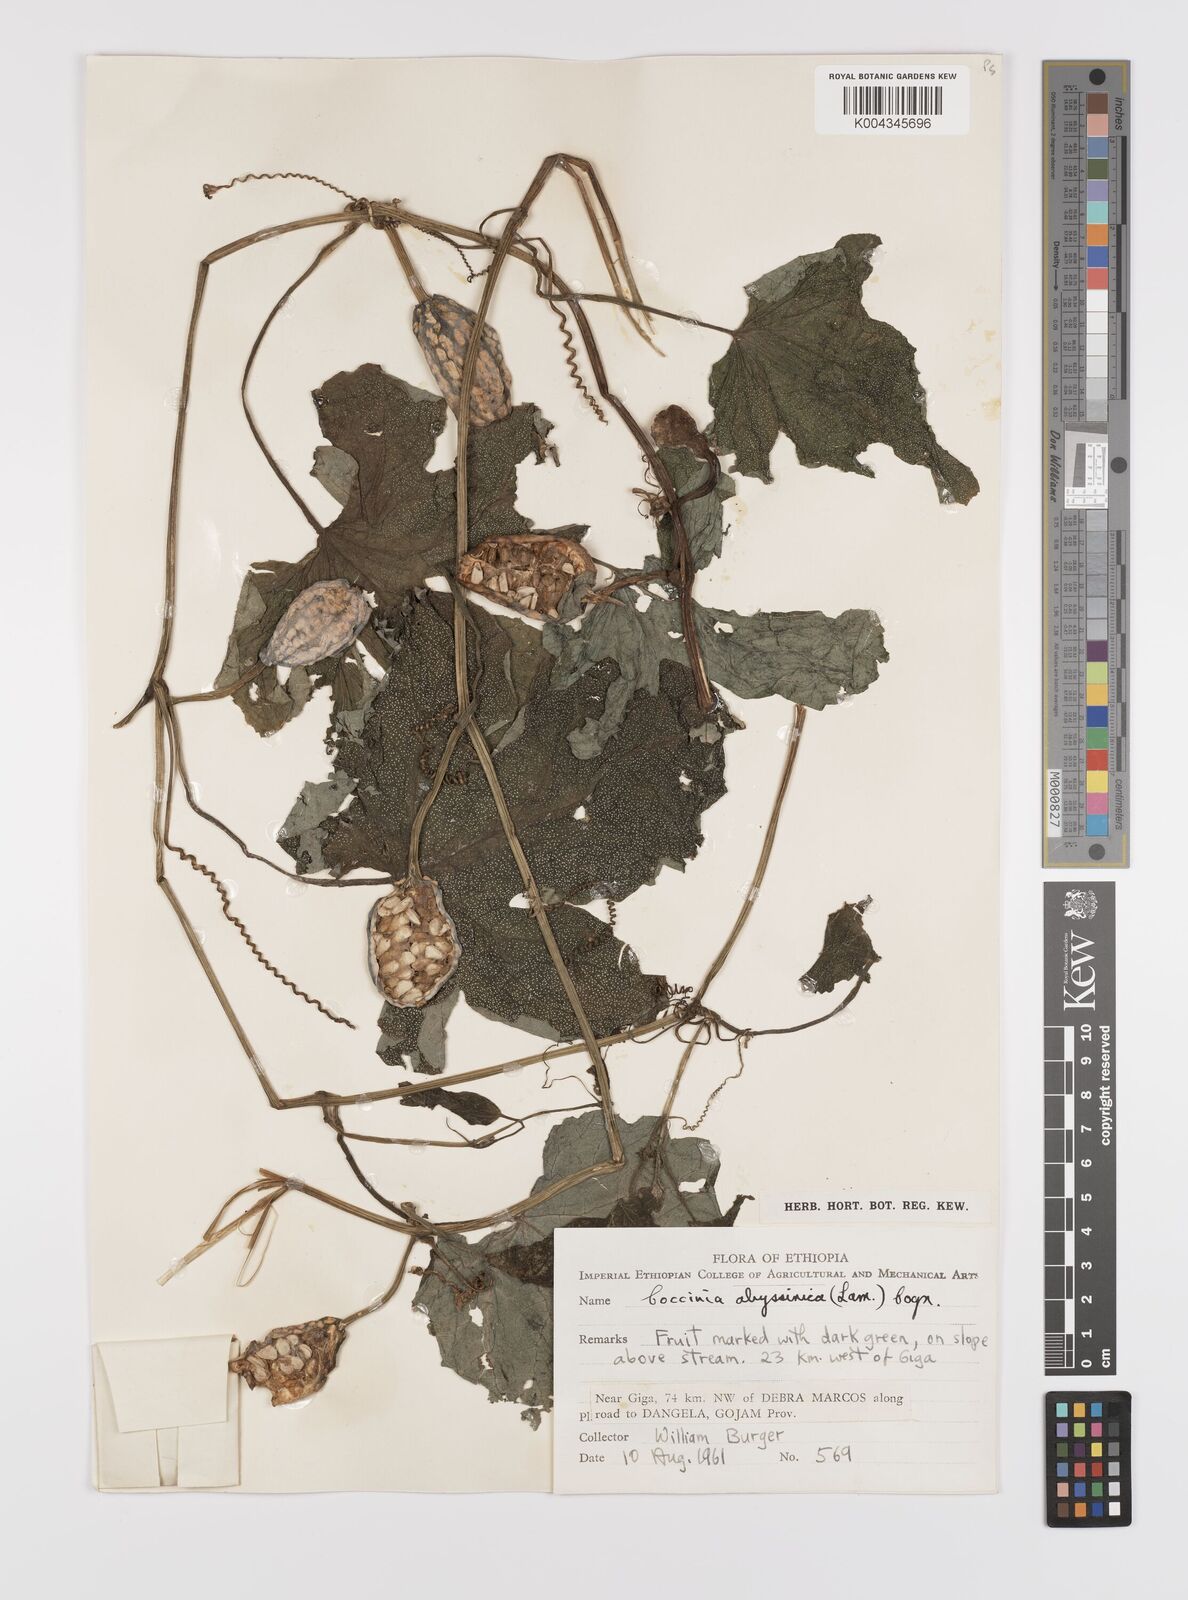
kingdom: Plantae
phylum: Tracheophyta
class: Magnoliopsida
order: Cucurbitales
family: Cucurbitaceae
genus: Coccinia
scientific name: Coccinia abyssinica
